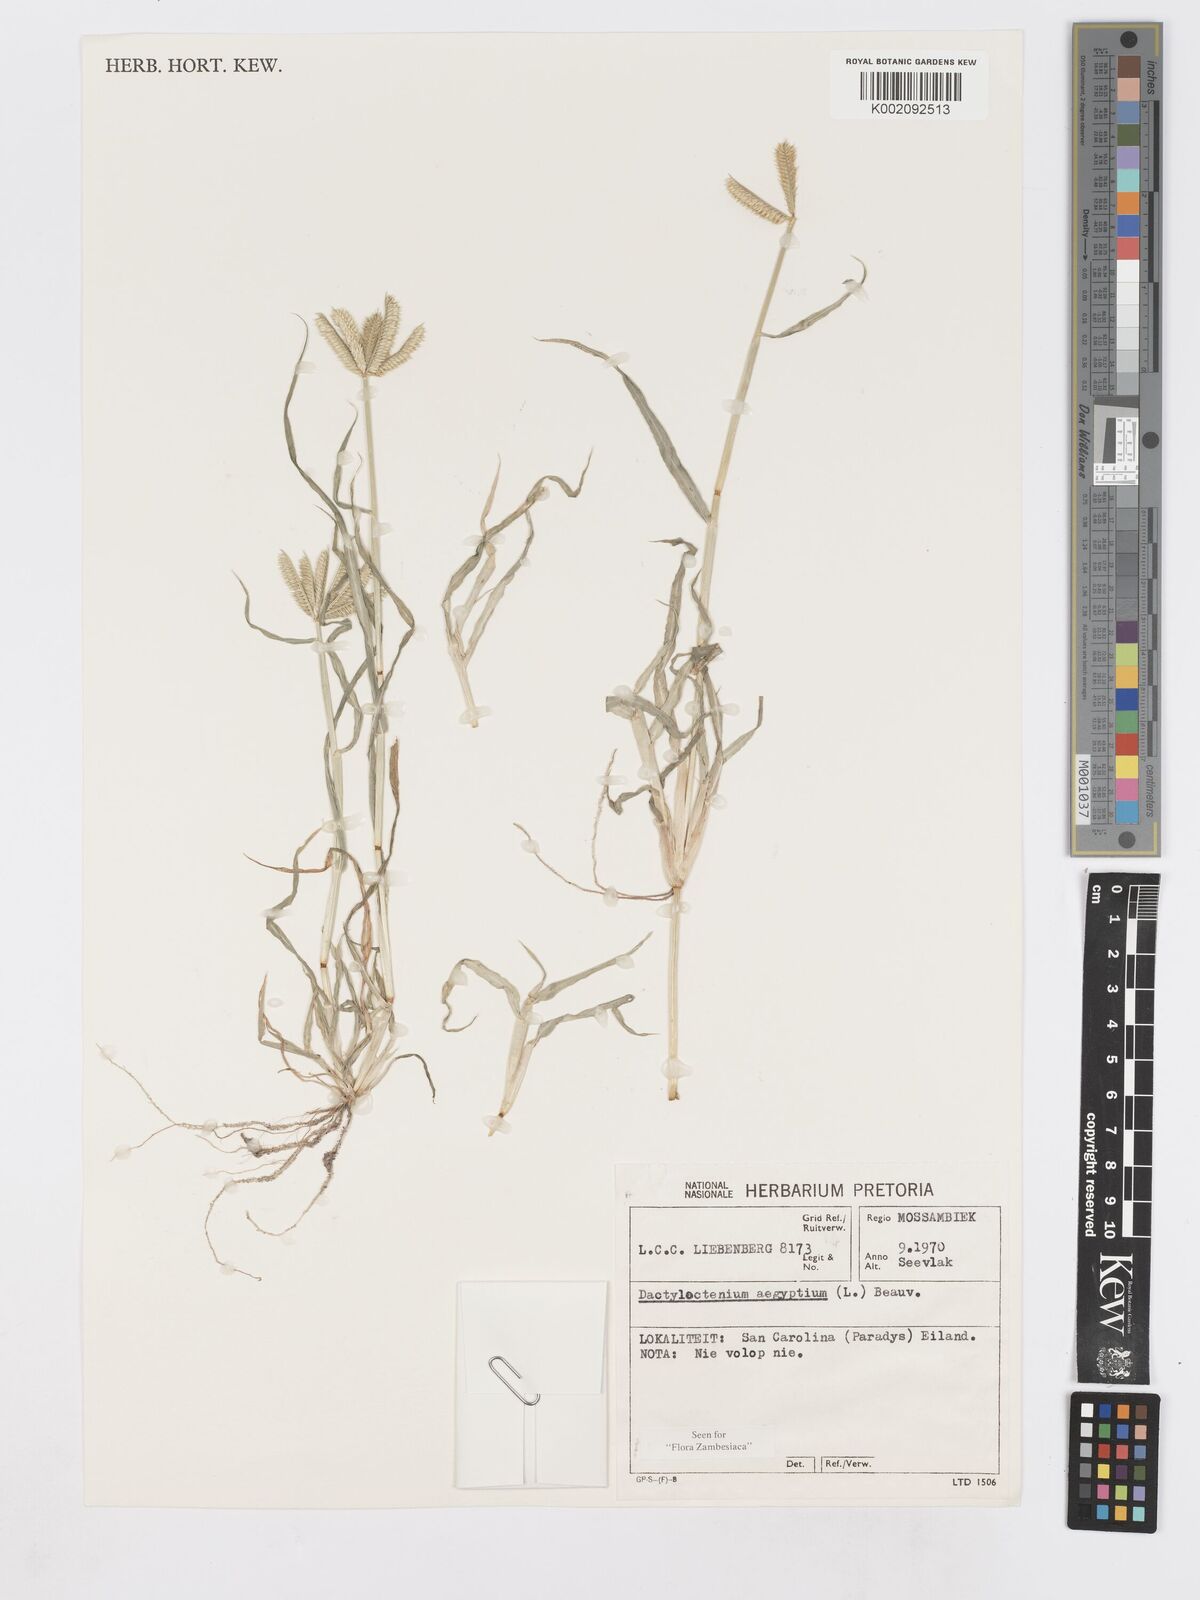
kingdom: Plantae
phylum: Tracheophyta
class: Liliopsida
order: Poales
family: Poaceae
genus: Dactyloctenium
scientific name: Dactyloctenium aegyptium
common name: Egyptian grass
